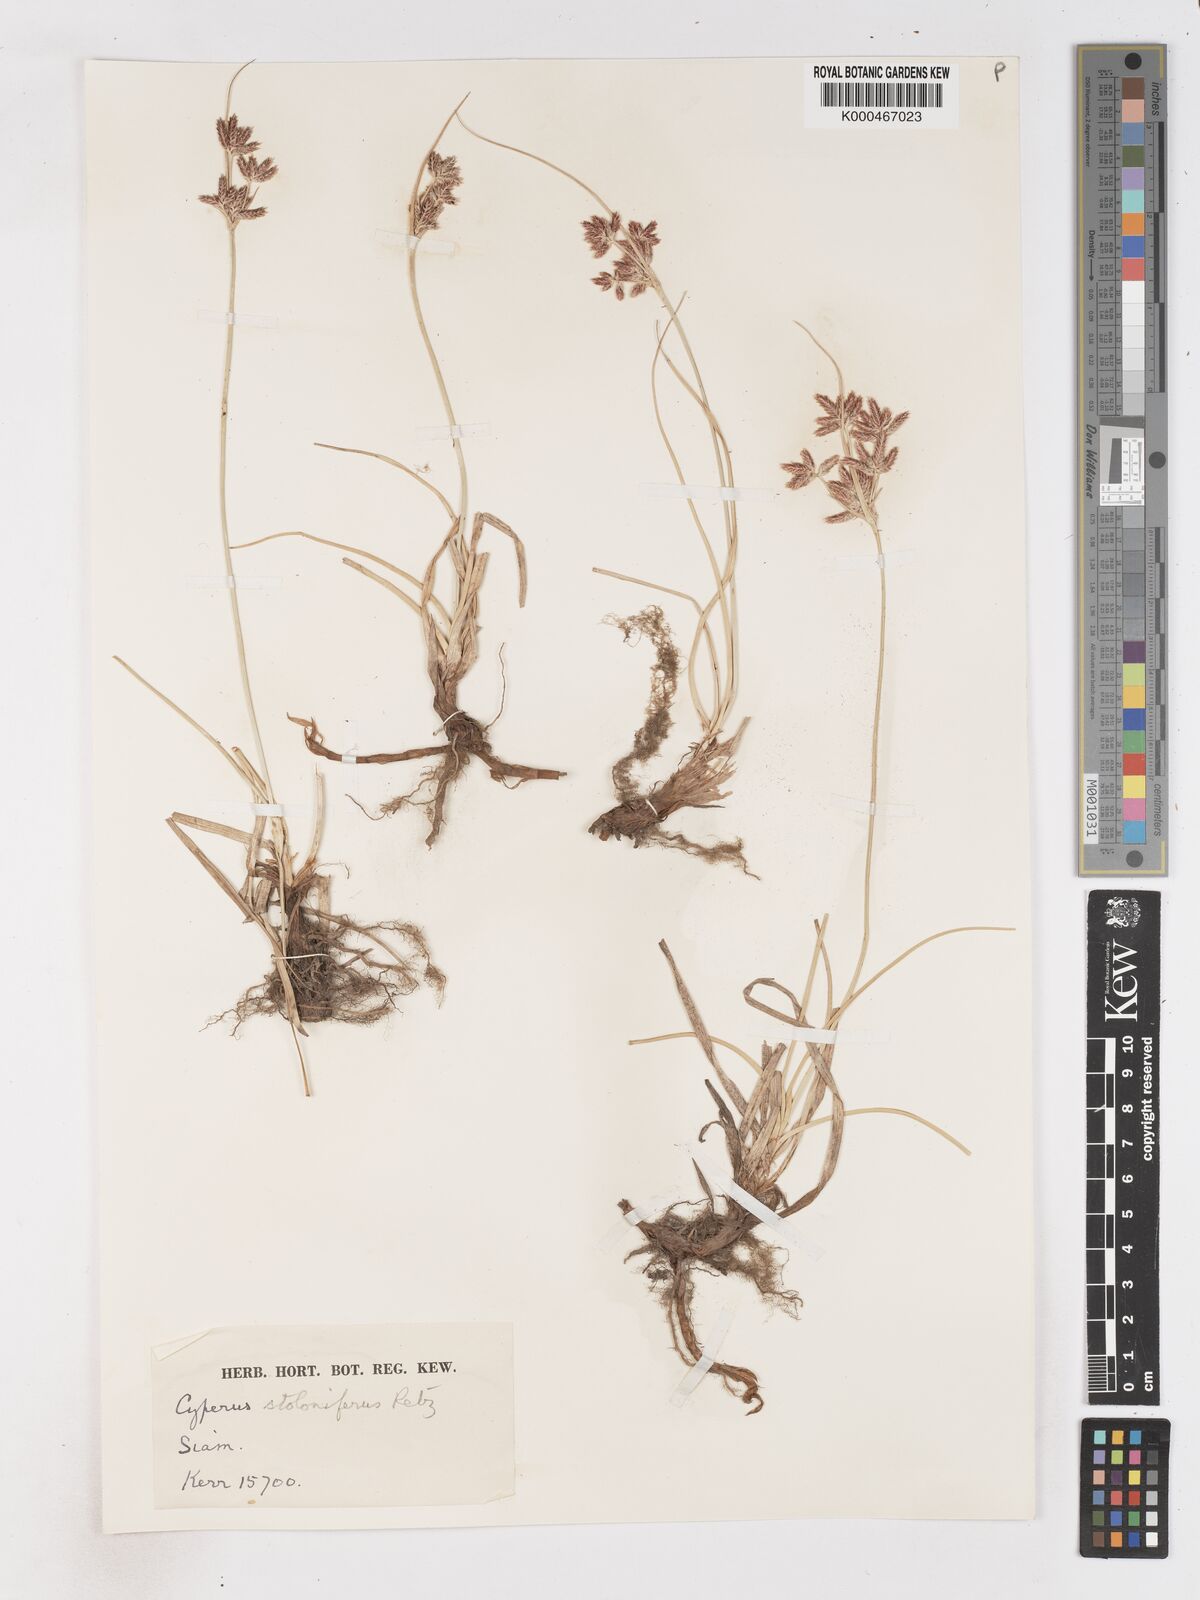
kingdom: Plantae
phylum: Tracheophyta
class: Liliopsida
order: Poales
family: Cyperaceae
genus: Cyperus
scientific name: Cyperus
